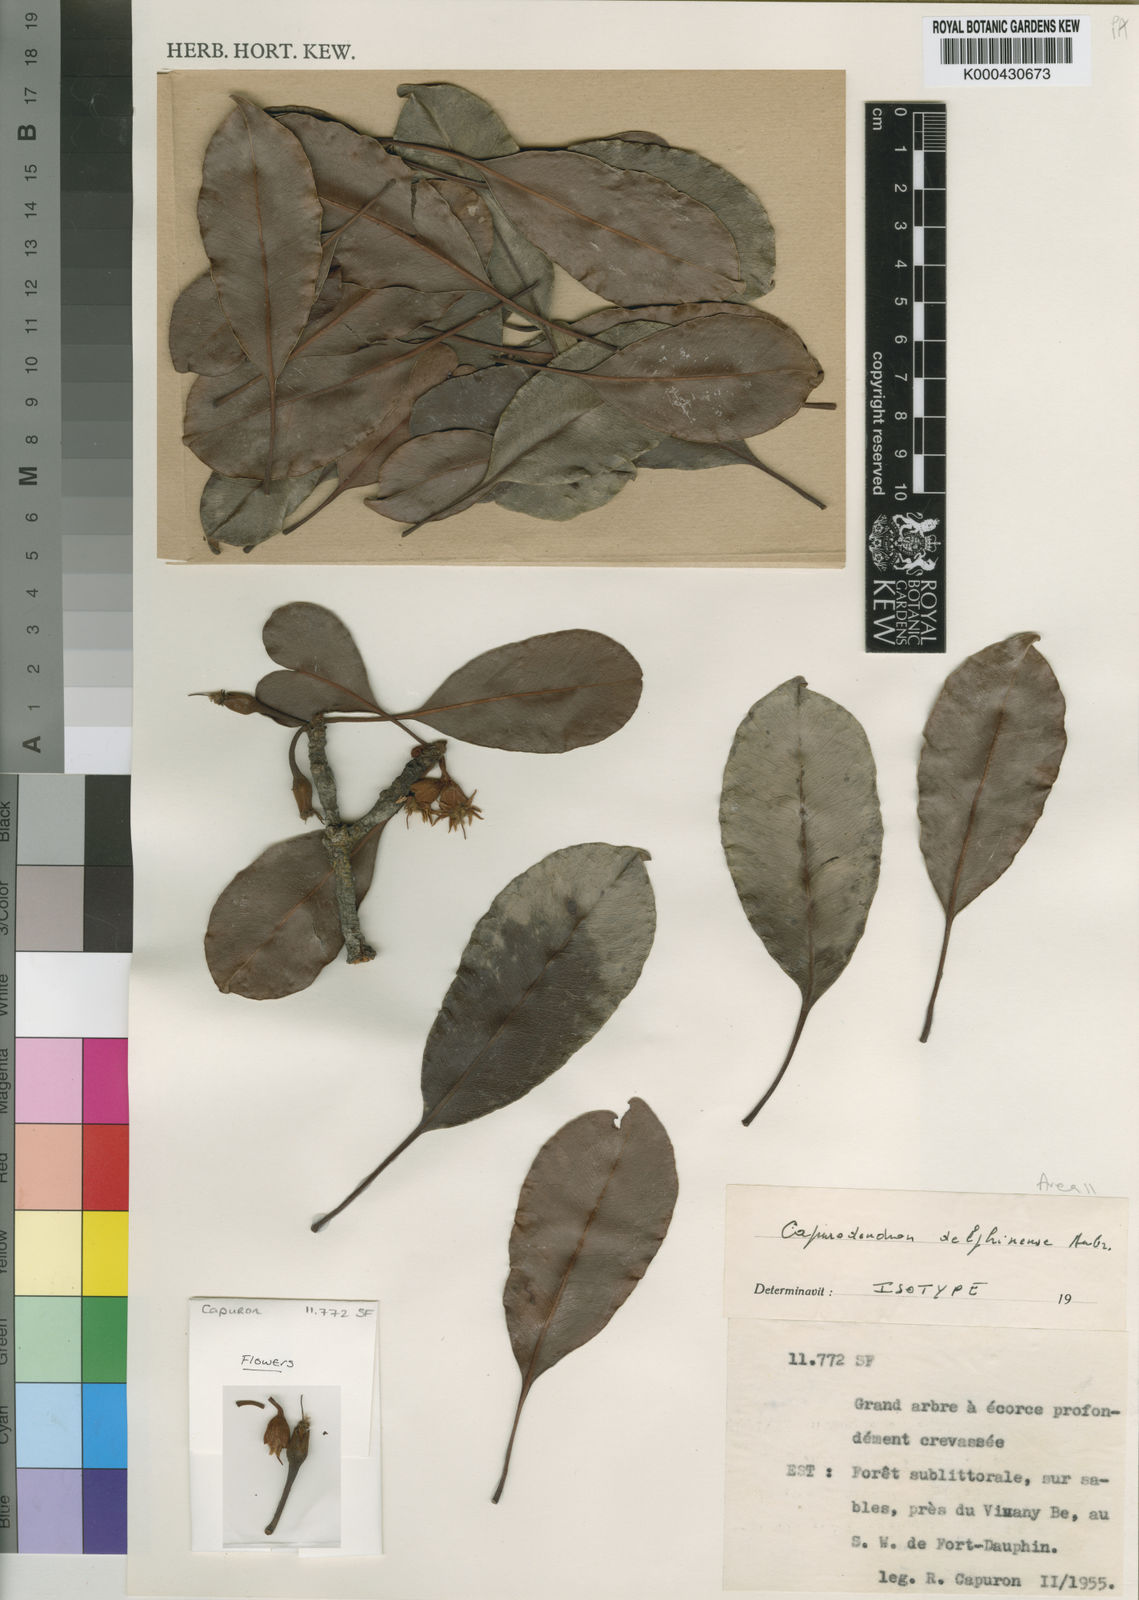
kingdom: Plantae
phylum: Tracheophyta
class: Magnoliopsida
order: Ericales
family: Sapotaceae
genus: Capurodendron
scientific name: Capurodendron
